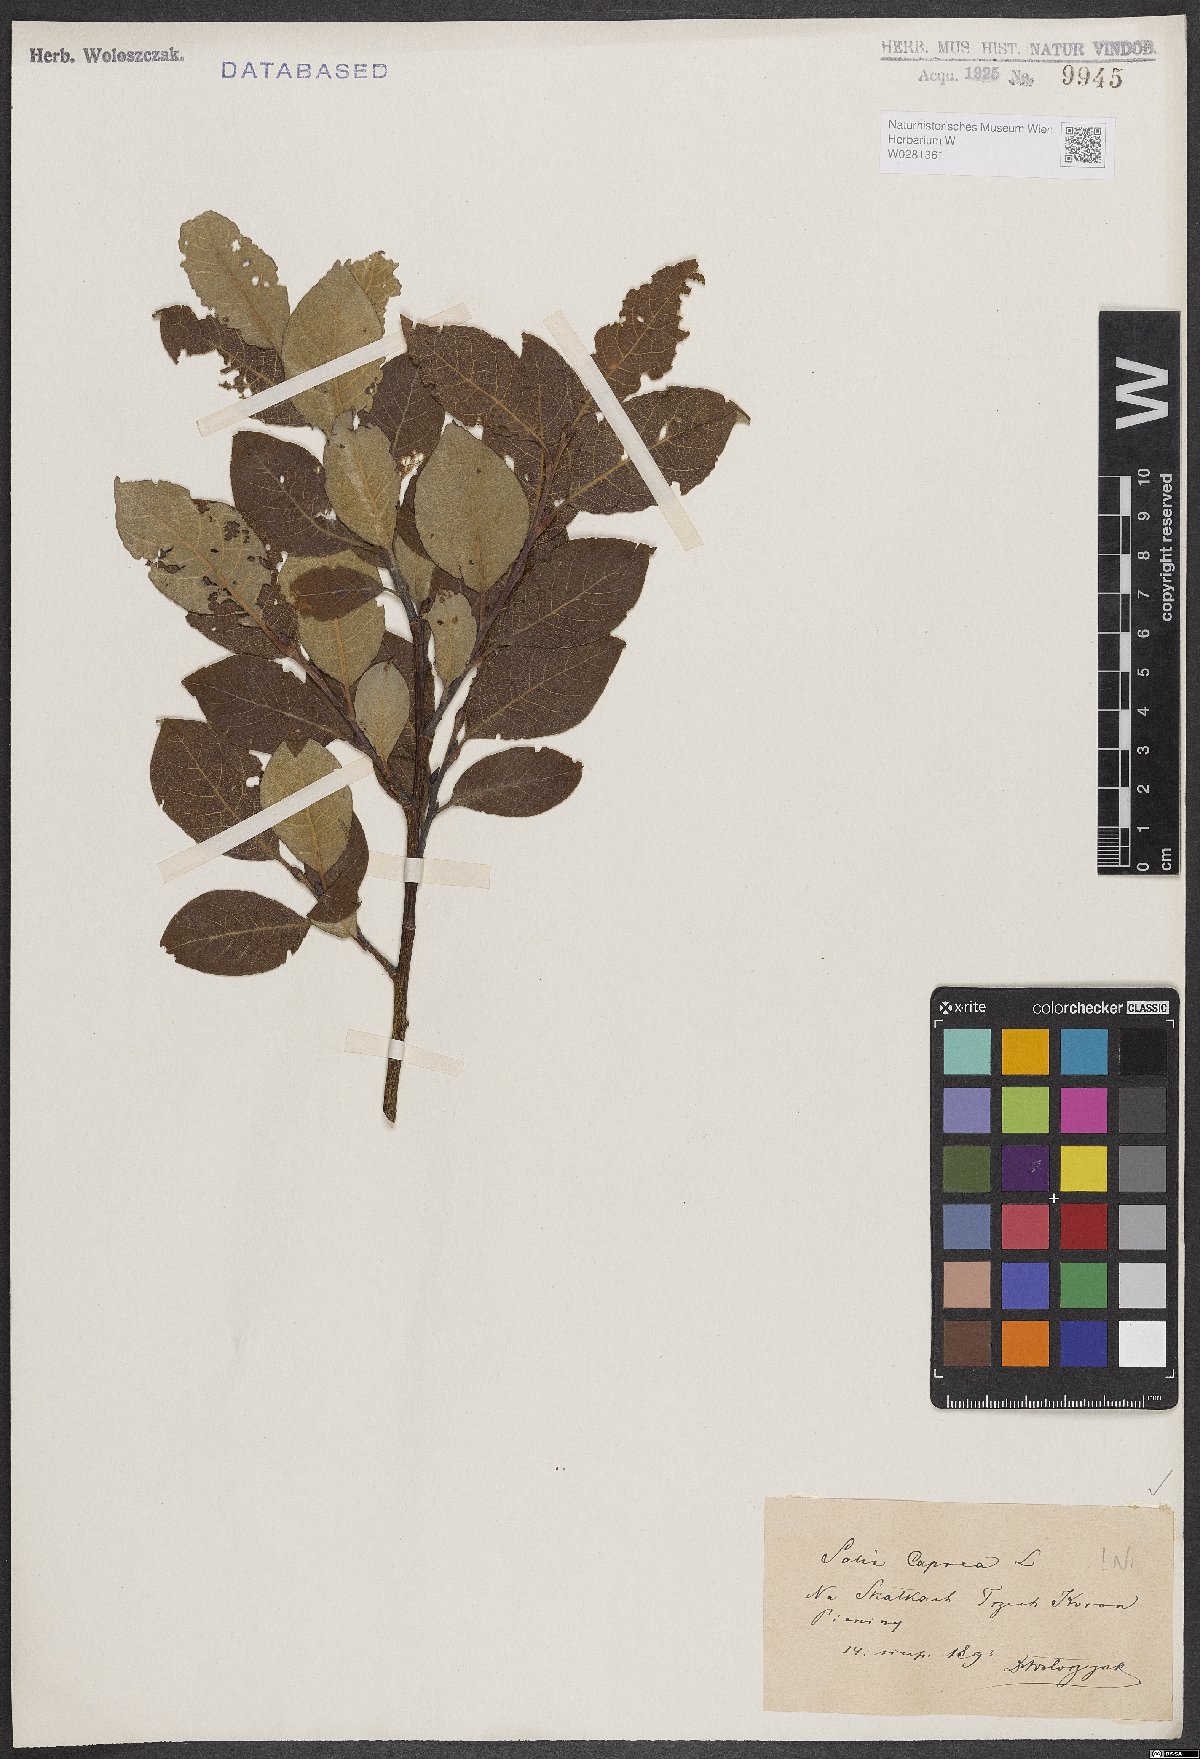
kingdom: Plantae
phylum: Tracheophyta
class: Magnoliopsida
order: Malpighiales
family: Salicaceae
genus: Salix
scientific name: Salix caprea
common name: Goat willow
